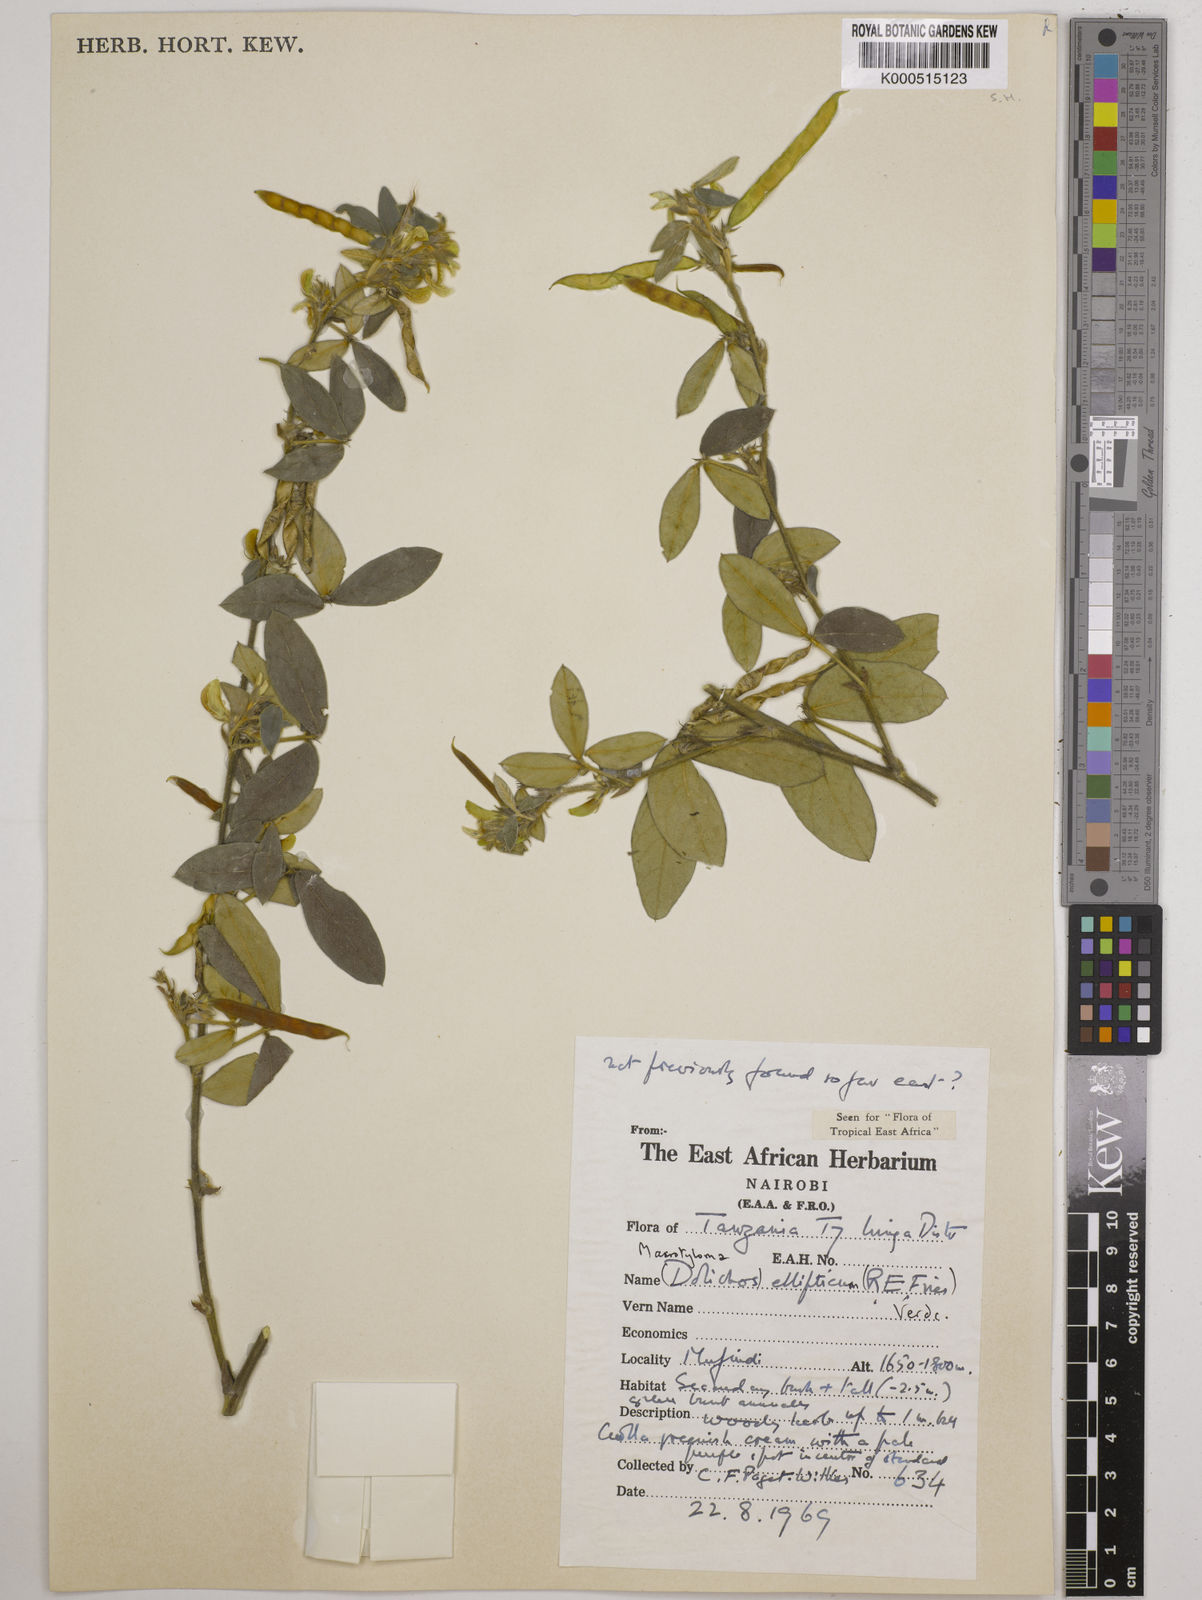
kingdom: Plantae
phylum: Tracheophyta
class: Magnoliopsida
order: Fabales
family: Fabaceae
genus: Macrotyloma
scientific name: Macrotyloma ellipticum
